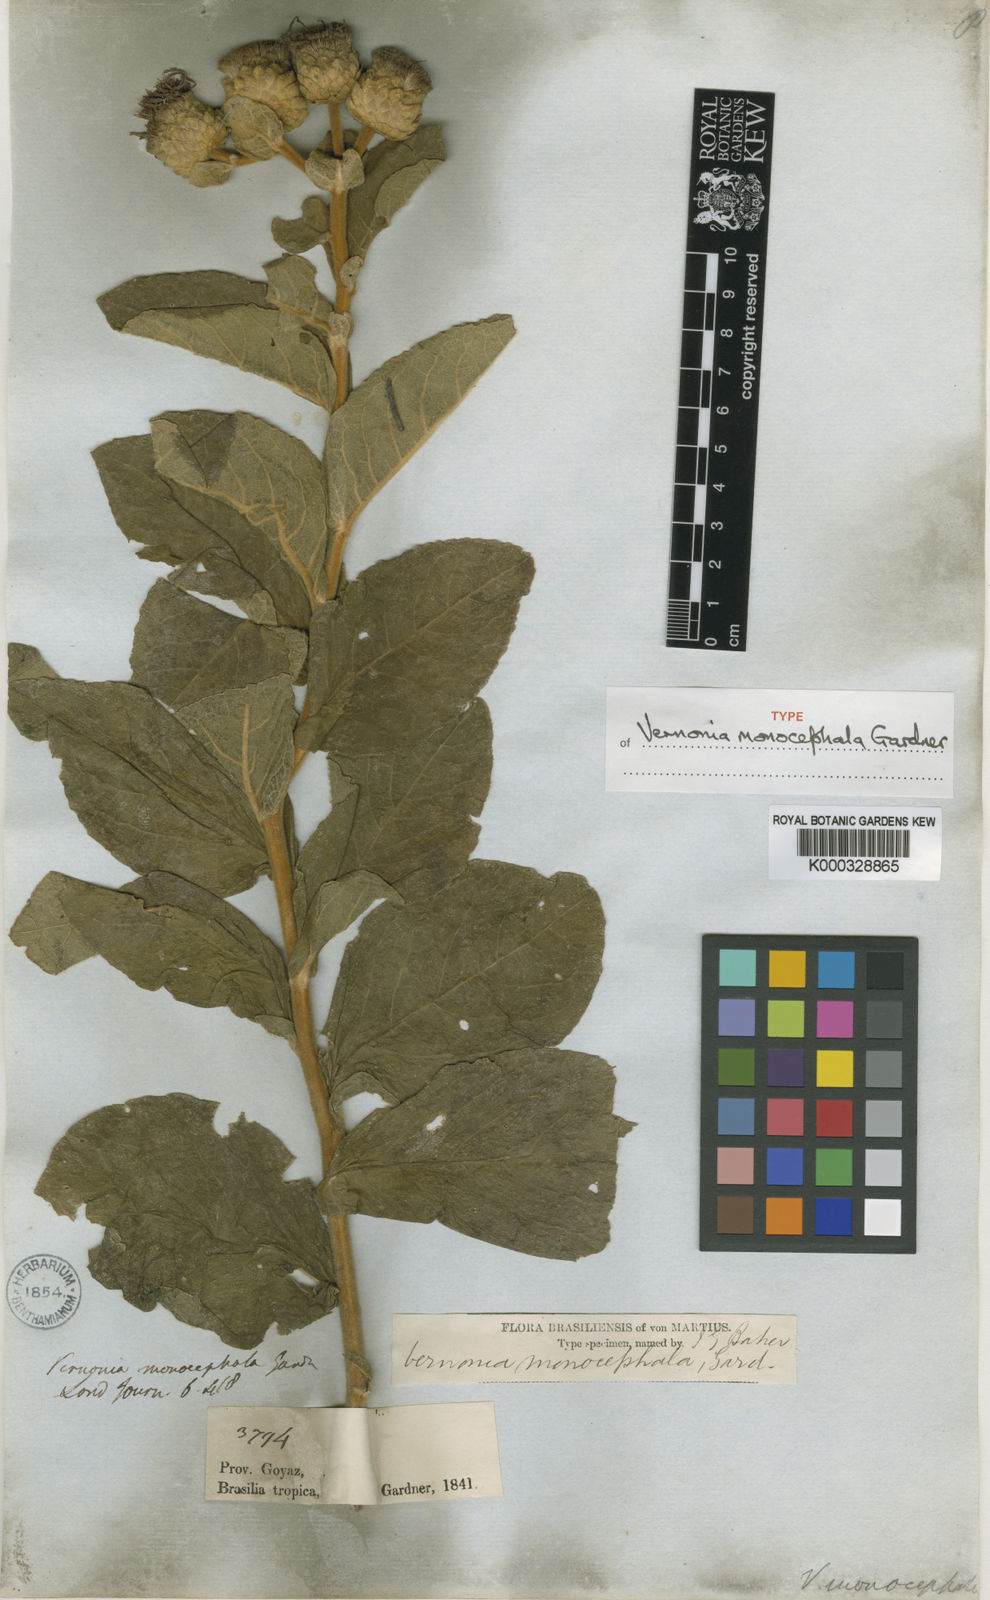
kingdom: Plantae
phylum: Tracheophyta
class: Magnoliopsida
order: Asterales
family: Asteraceae
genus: Lessingianthus
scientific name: Lessingianthus monocephalus
